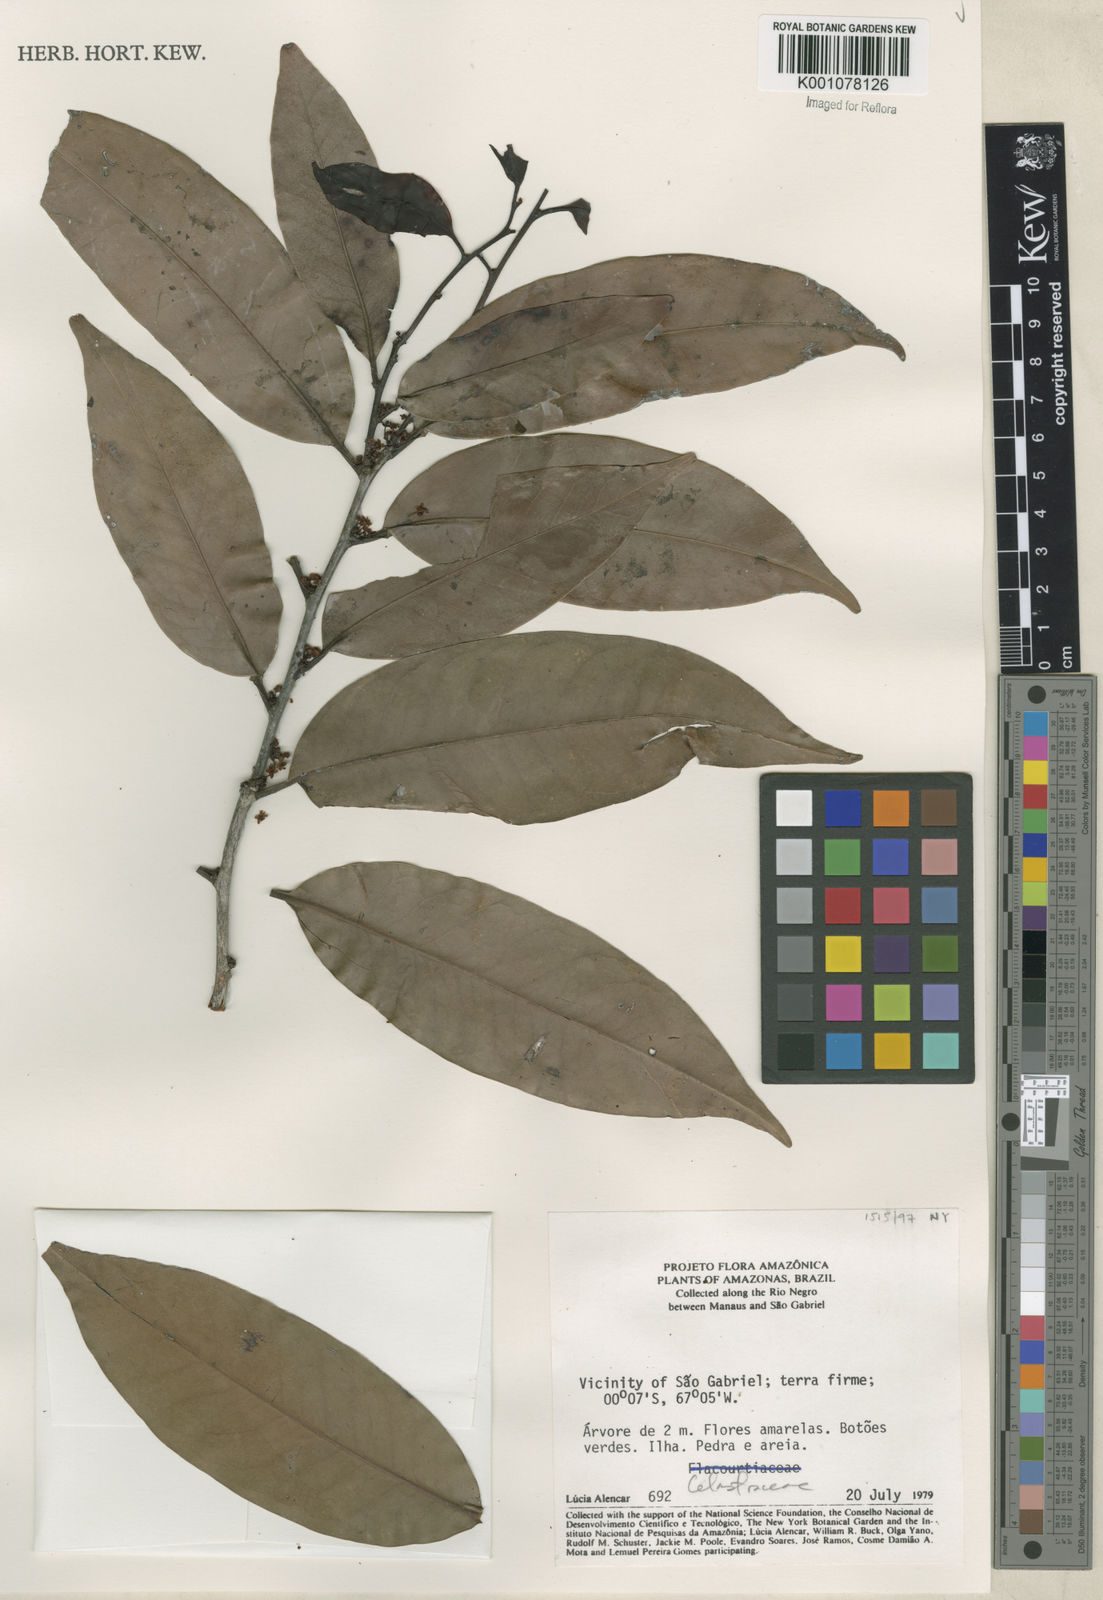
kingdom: Plantae
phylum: Tracheophyta
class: Magnoliopsida
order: Celastrales
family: Celastraceae
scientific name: Celastraceae
